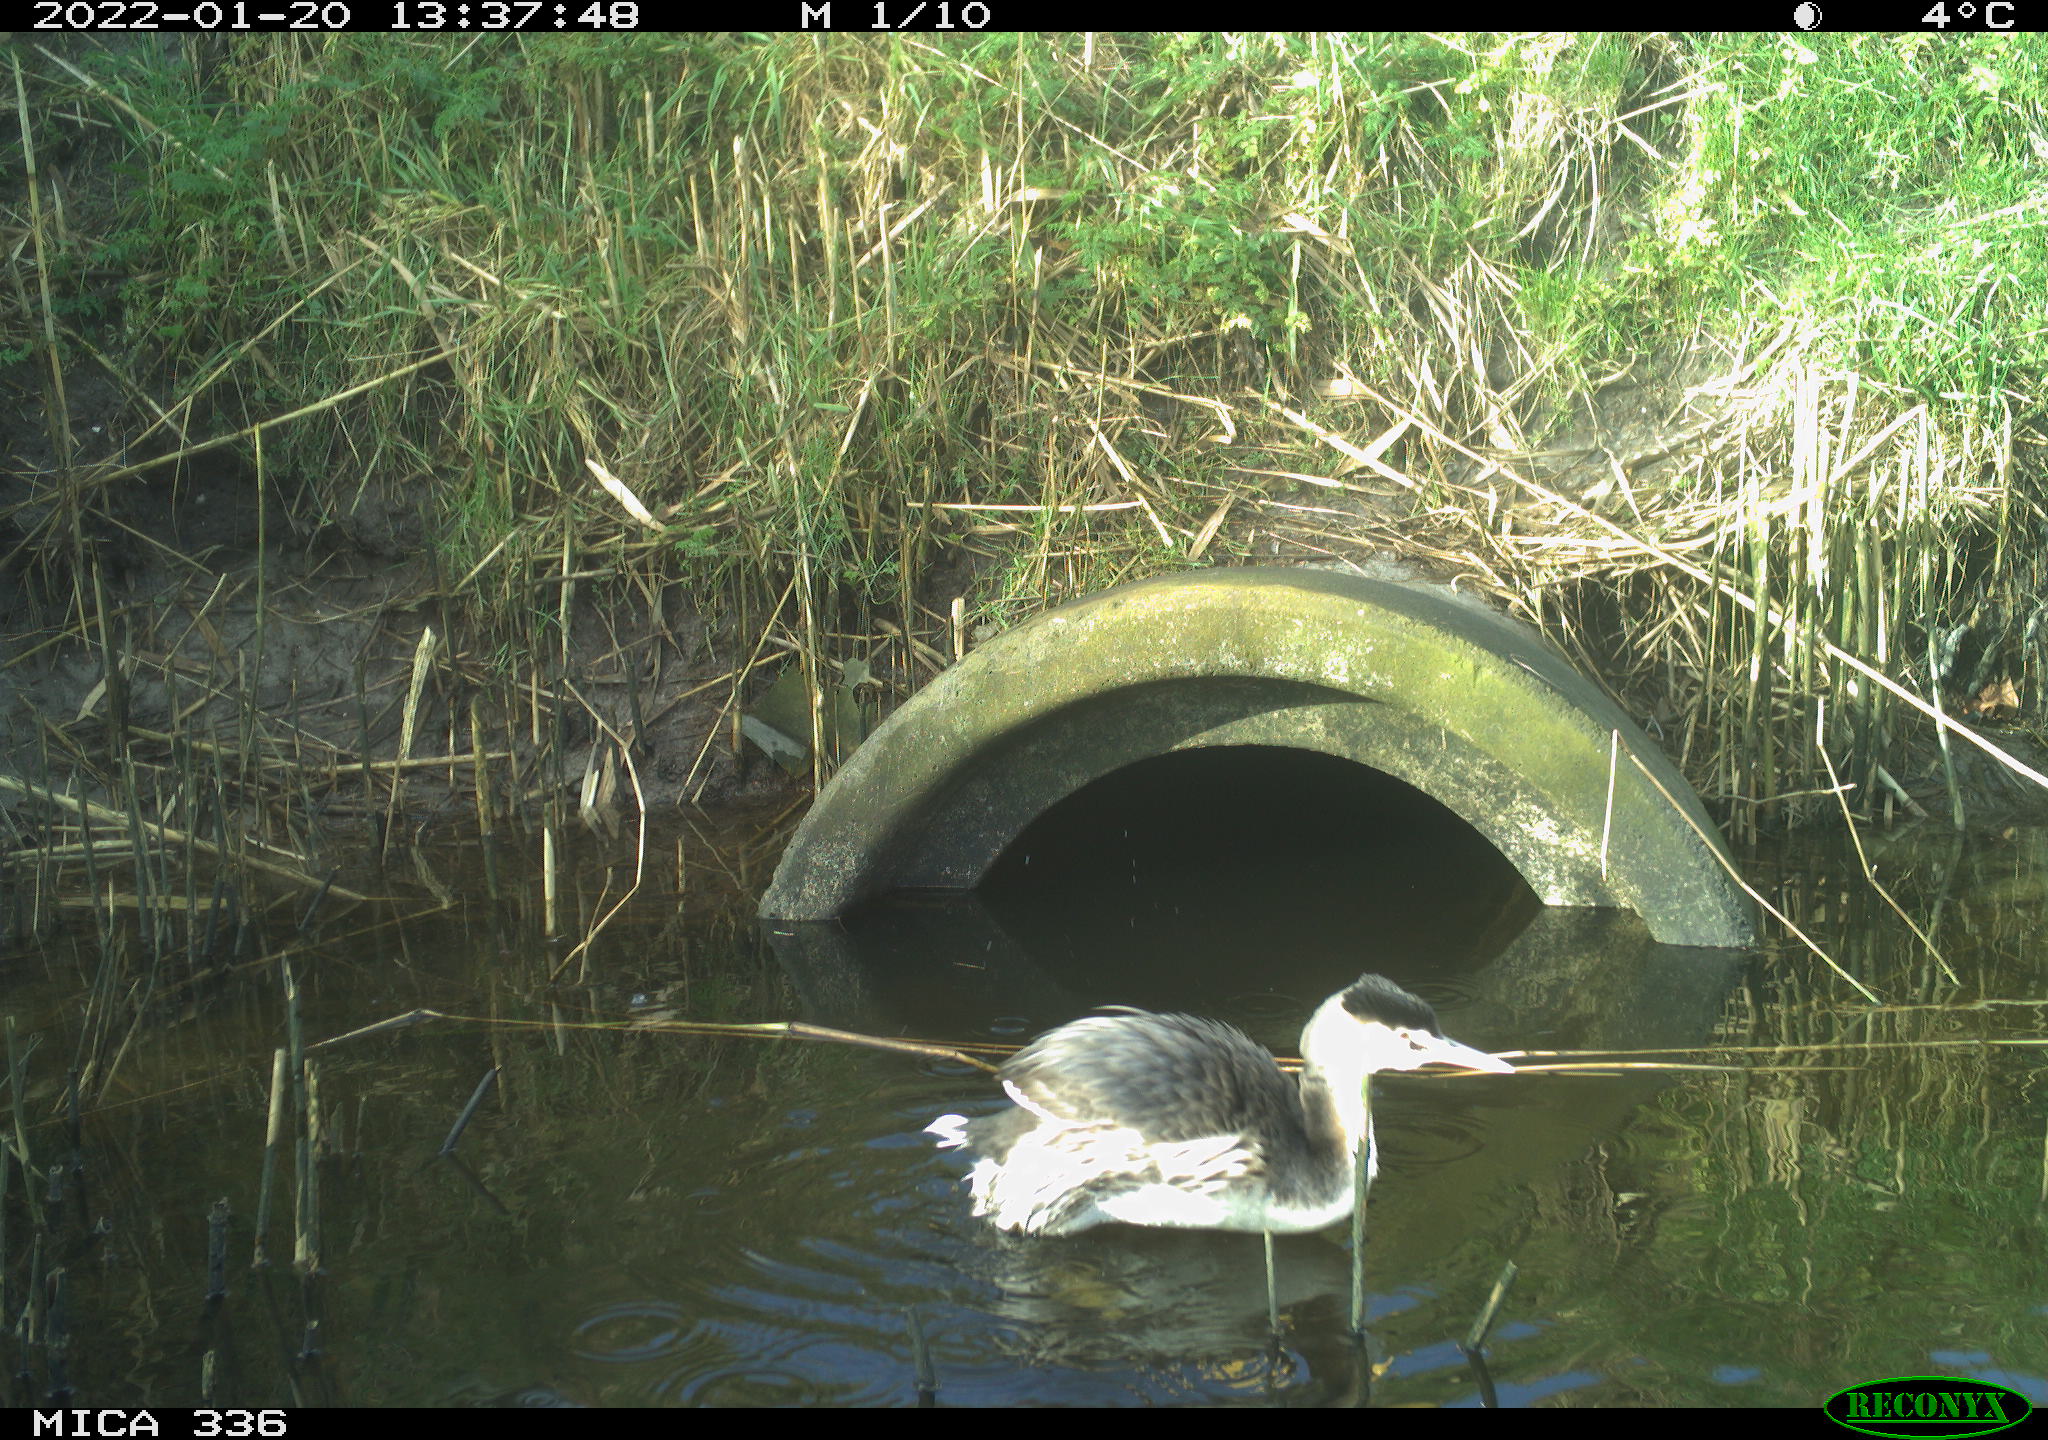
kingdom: Animalia
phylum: Chordata
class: Aves
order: Podicipediformes
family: Podicipedidae
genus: Podiceps
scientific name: Podiceps cristatus
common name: Great crested grebe
